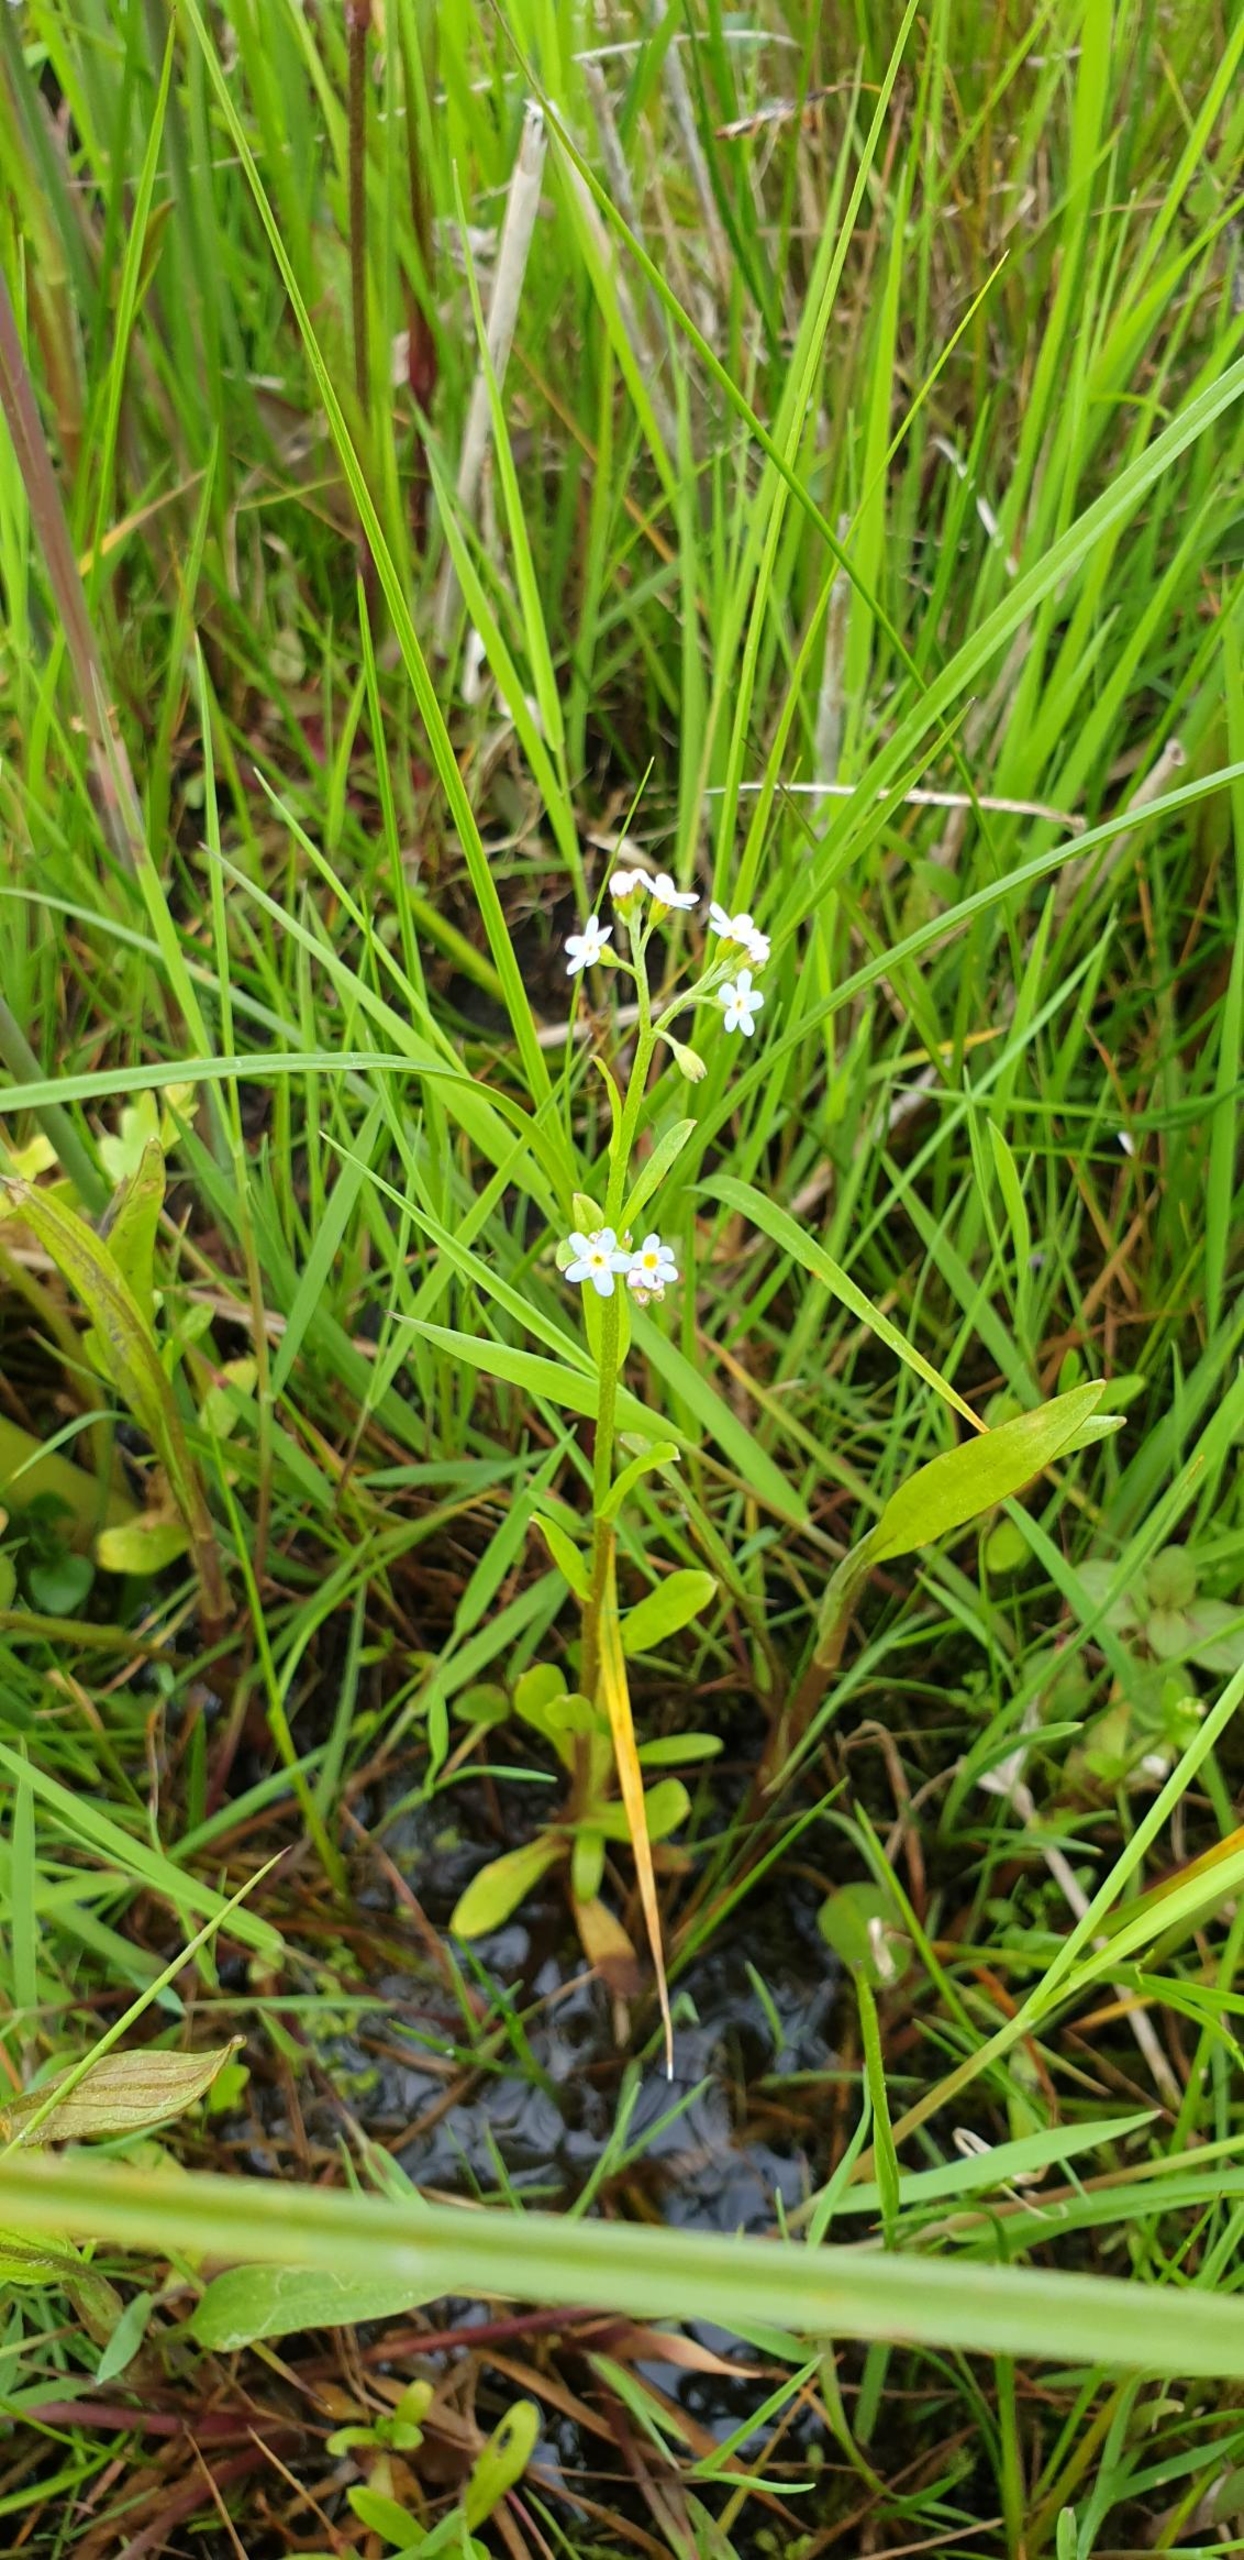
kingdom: Plantae
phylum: Tracheophyta
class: Magnoliopsida
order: Boraginales
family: Boraginaceae
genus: Myosotis
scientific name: Myosotis scorpioides
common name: Eng-forglemmigej
